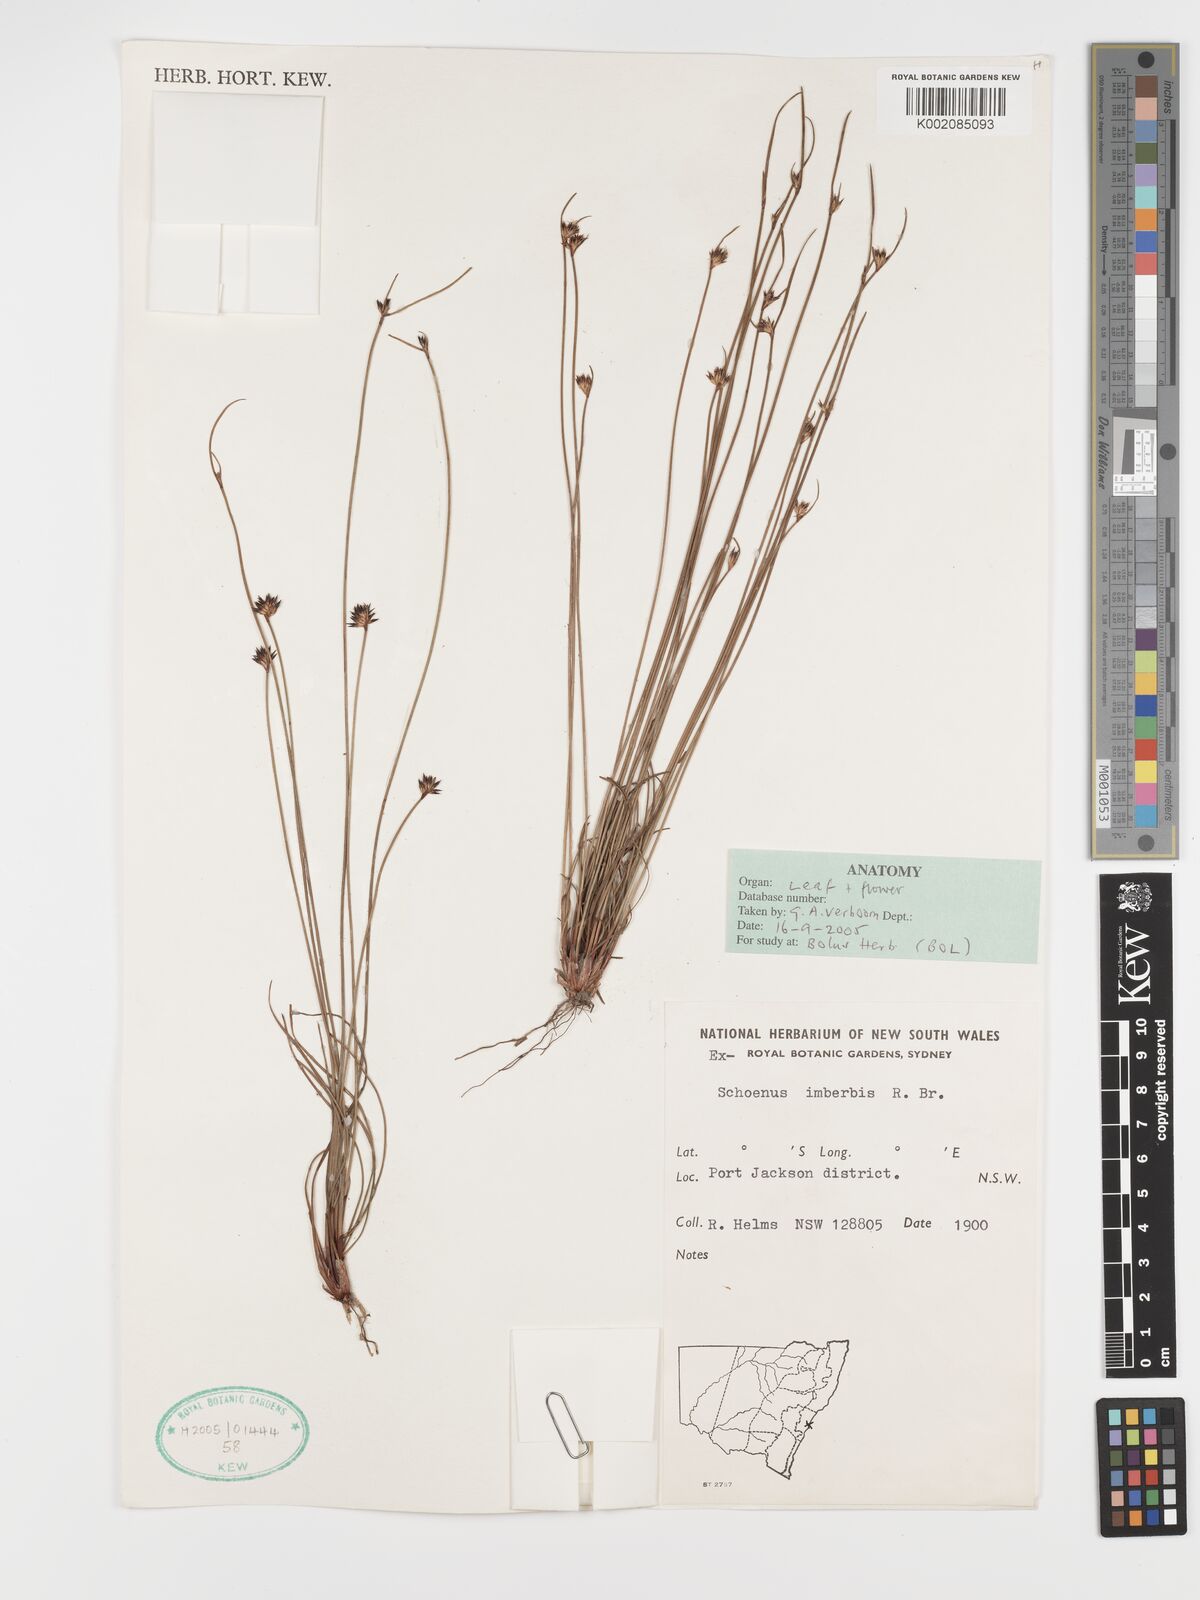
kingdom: Plantae
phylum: Tracheophyta
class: Liliopsida
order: Poales
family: Cyperaceae
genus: Schoenus
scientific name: Schoenus imberbis
